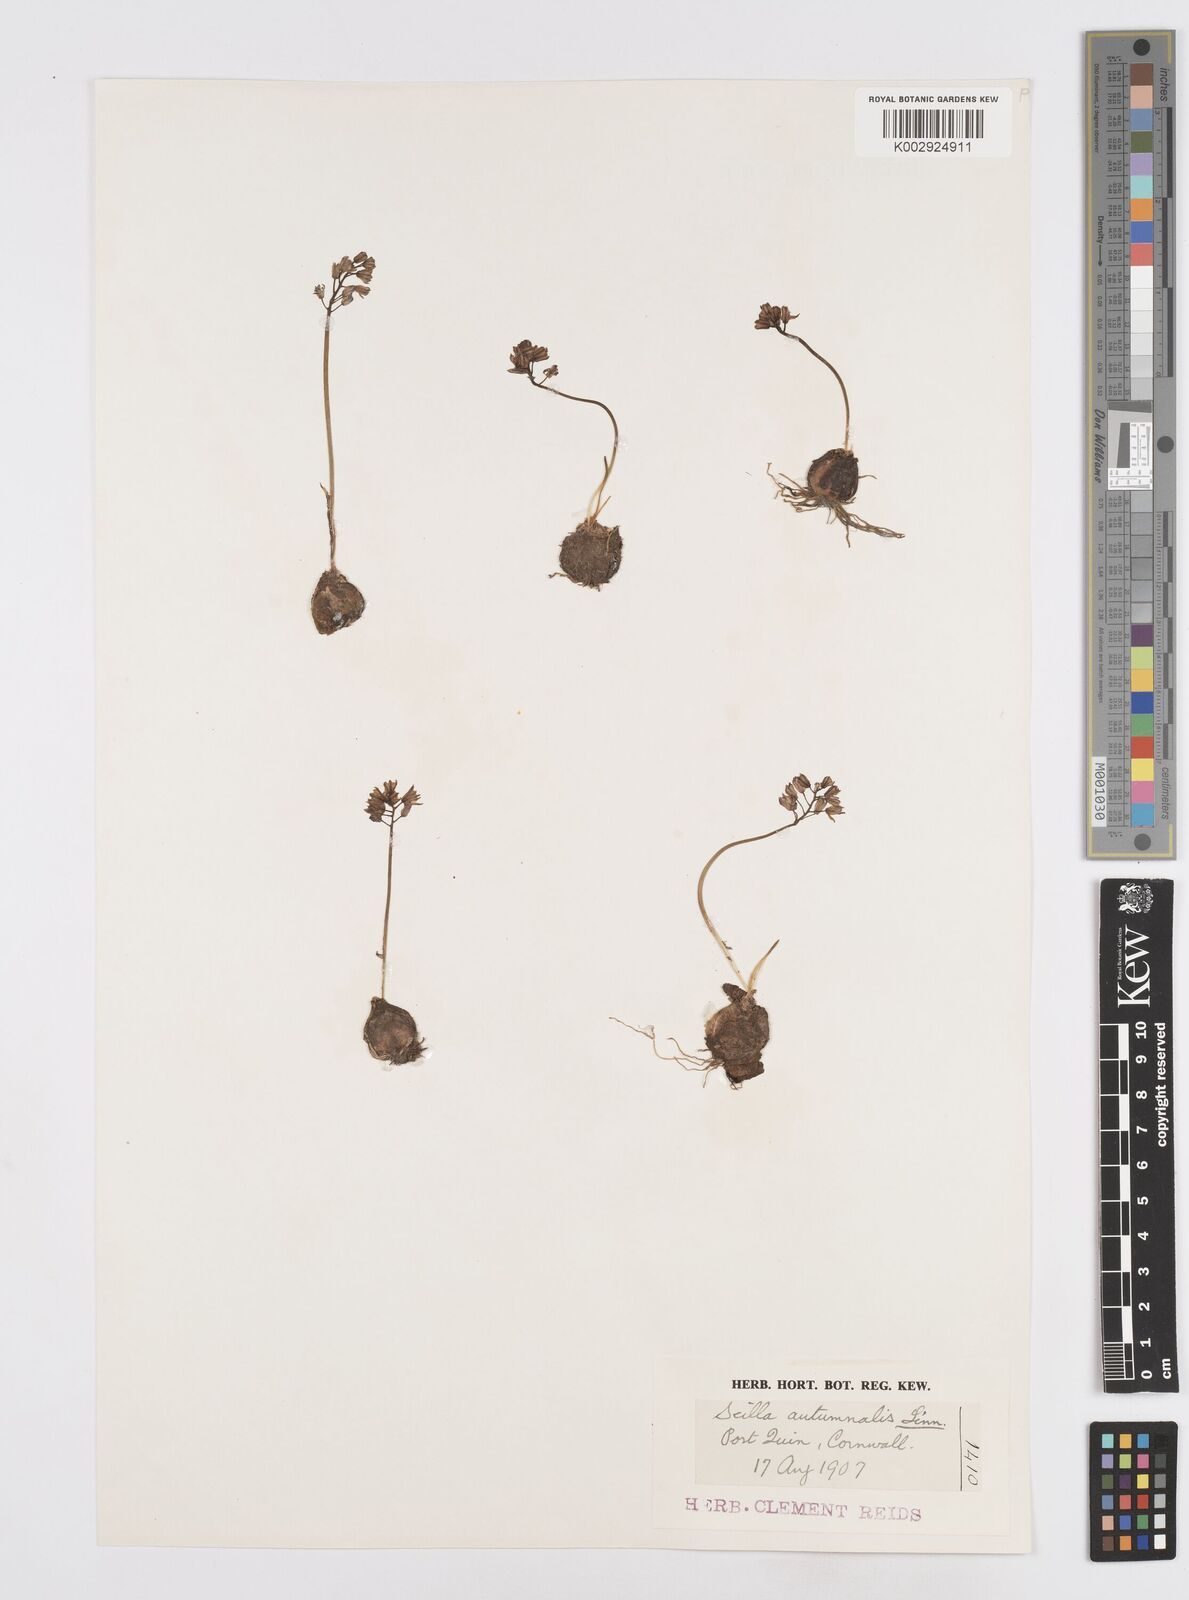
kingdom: Plantae
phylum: Tracheophyta
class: Liliopsida
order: Asparagales
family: Asparagaceae
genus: Prospero
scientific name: Prospero autumnale
